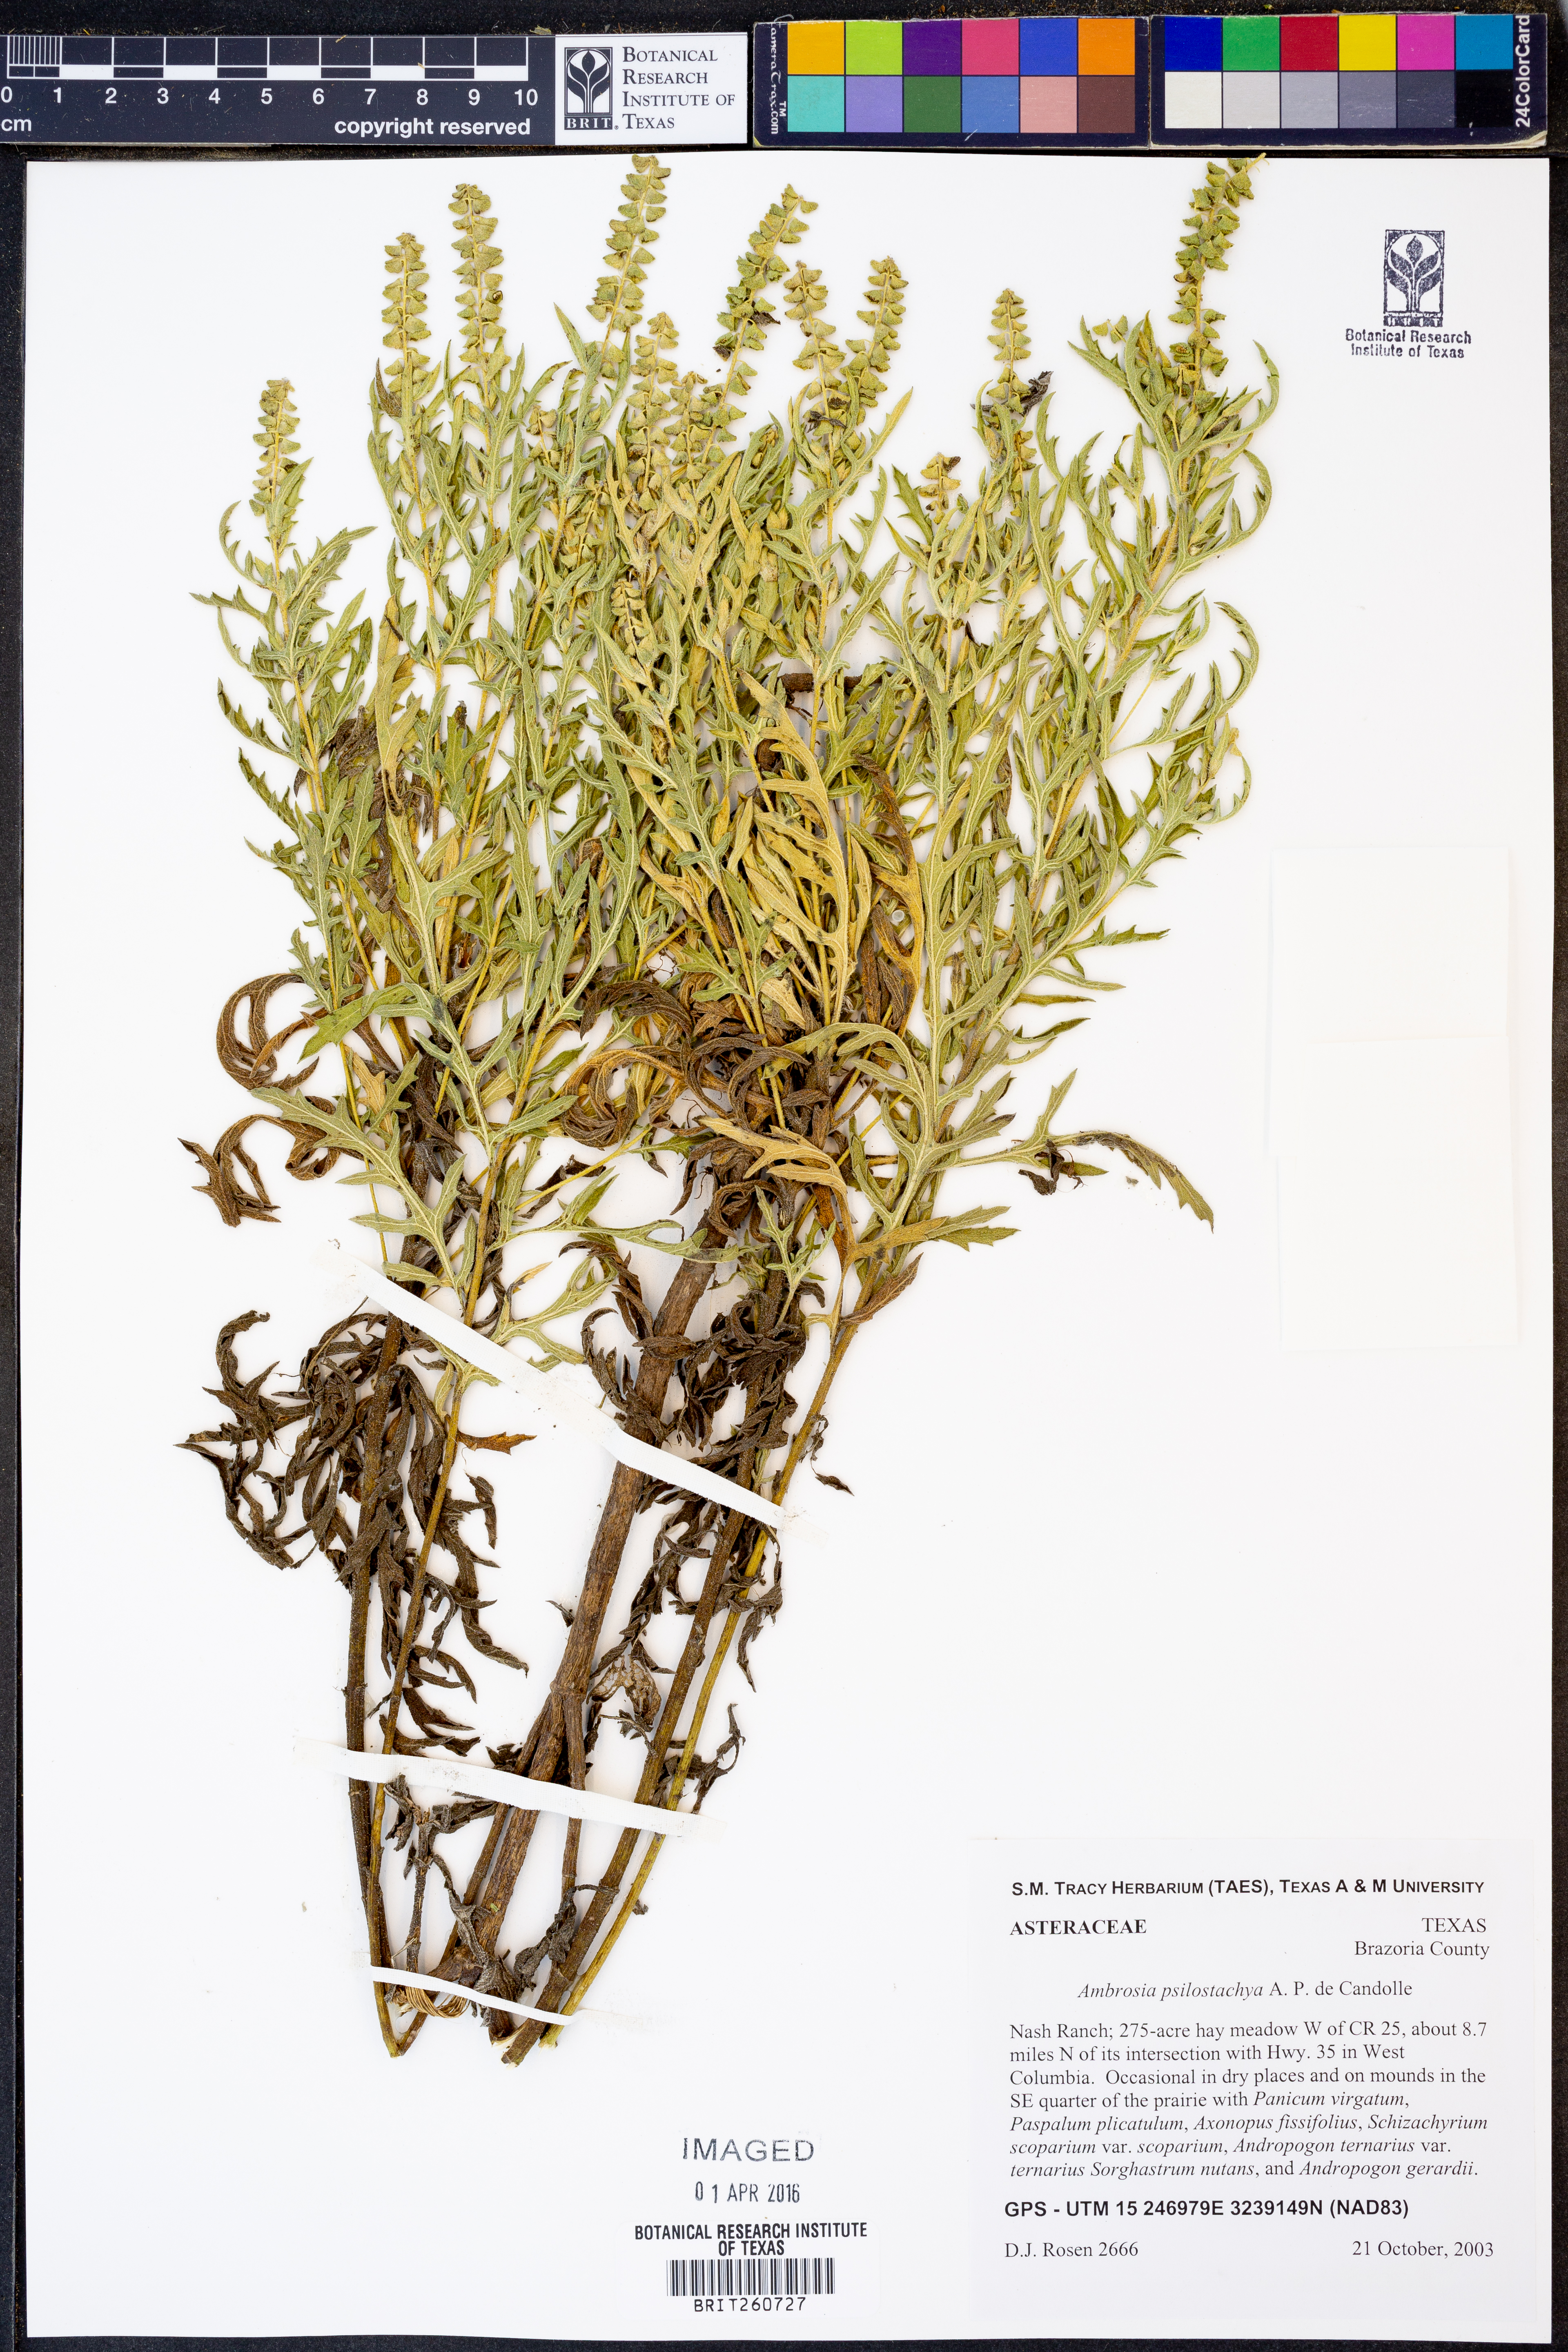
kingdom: Plantae
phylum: Tracheophyta
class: Magnoliopsida
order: Asterales
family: Asteraceae
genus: Ambrosia
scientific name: Ambrosia psilostachya
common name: Perennial ragweed
